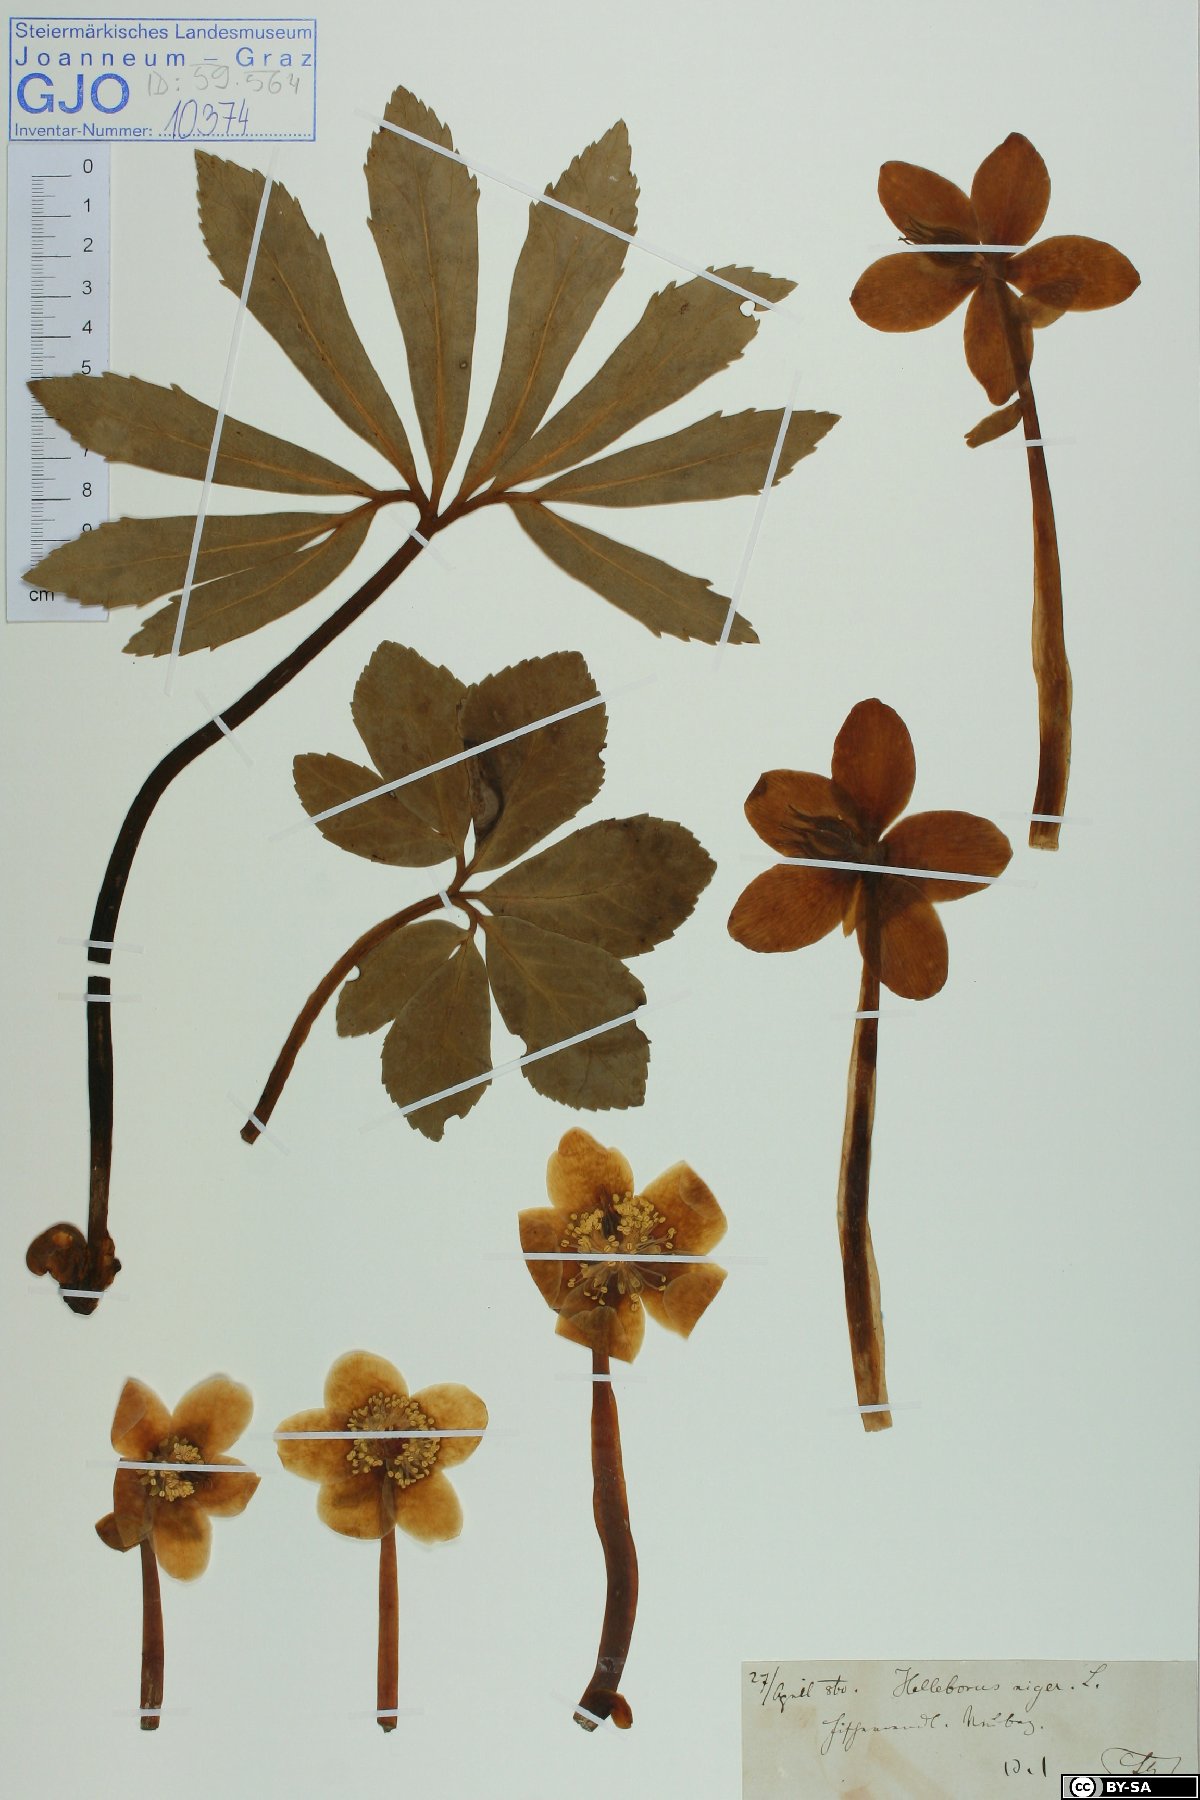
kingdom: Plantae
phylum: Tracheophyta
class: Magnoliopsida
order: Ranunculales
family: Ranunculaceae
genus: Helleborus
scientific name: Helleborus niger
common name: Black hellebore
